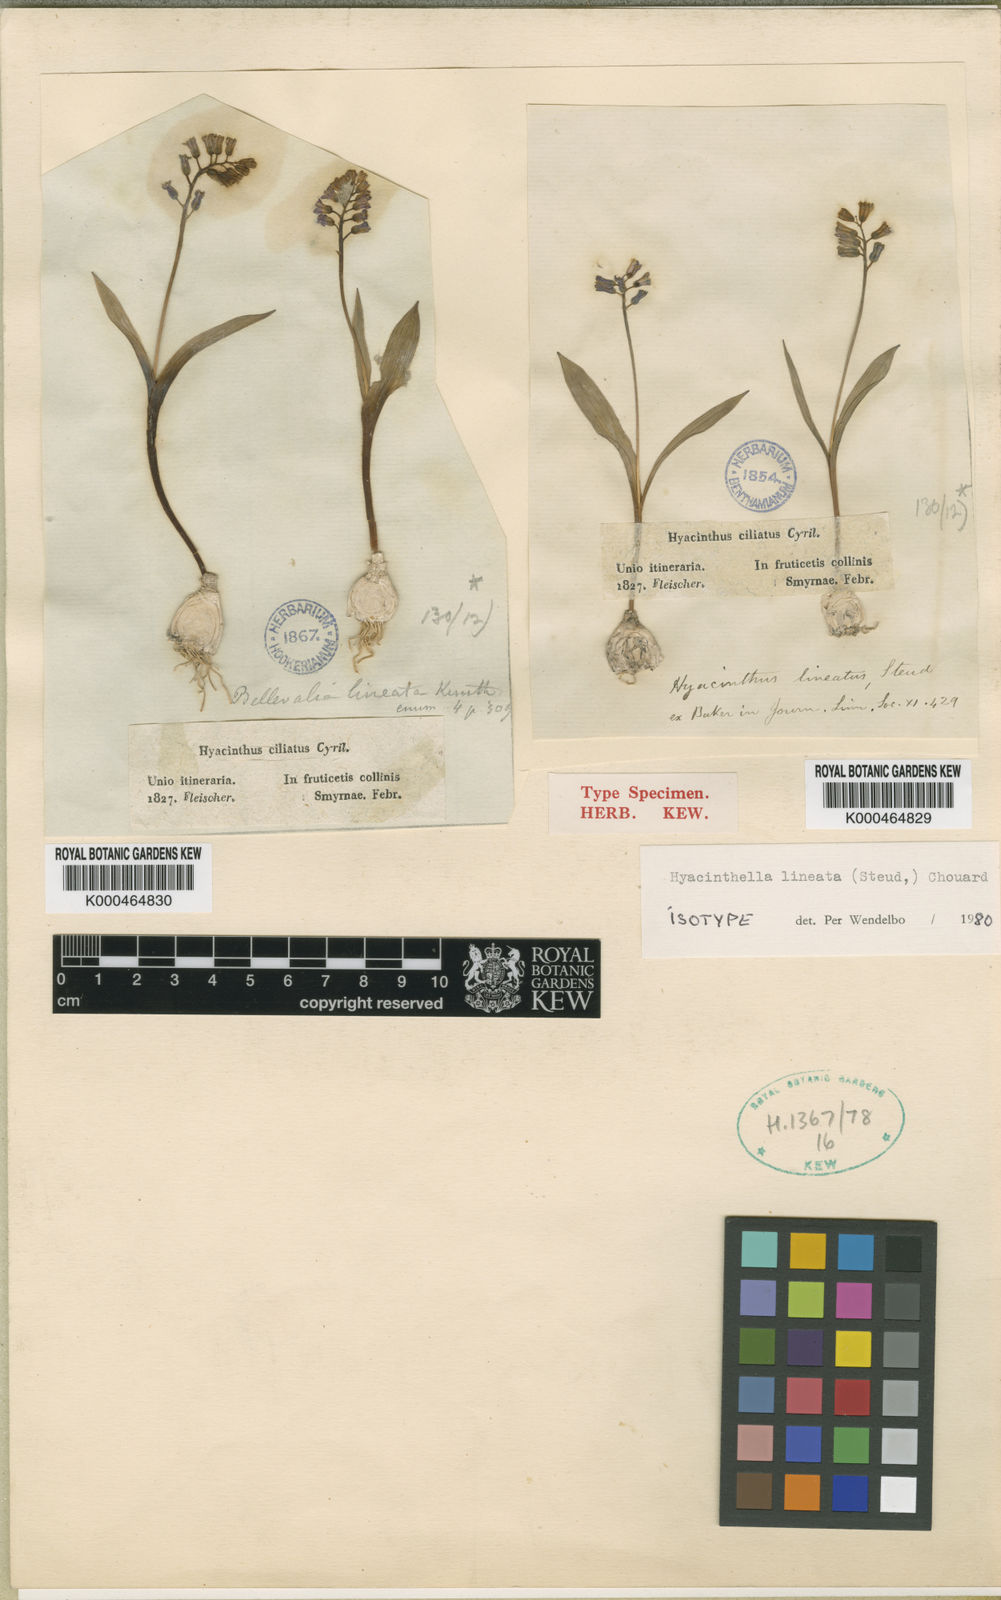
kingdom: Plantae
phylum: Tracheophyta
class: Liliopsida
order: Asparagales
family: Asparagaceae
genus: Hyacinthella
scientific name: Hyacinthella lineata
